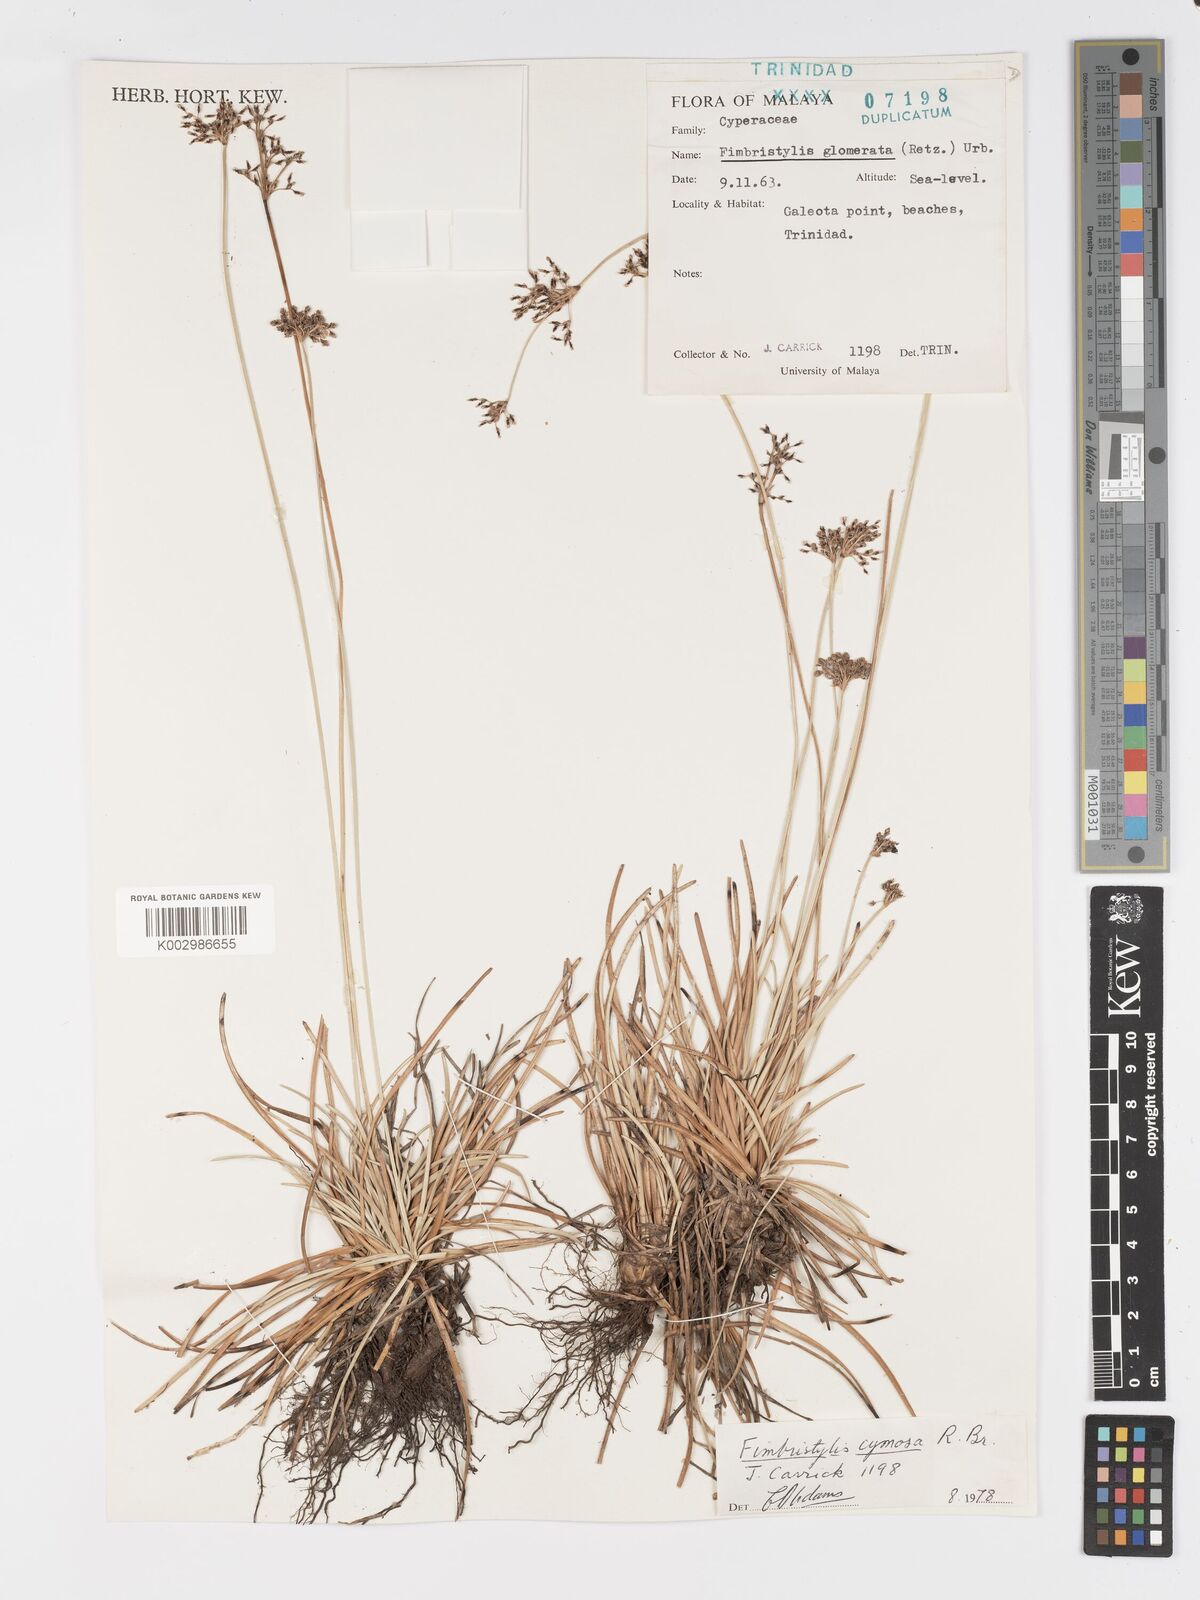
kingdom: Plantae
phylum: Tracheophyta
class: Liliopsida
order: Poales
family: Cyperaceae
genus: Fimbristylis
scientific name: Fimbristylis cymosa
